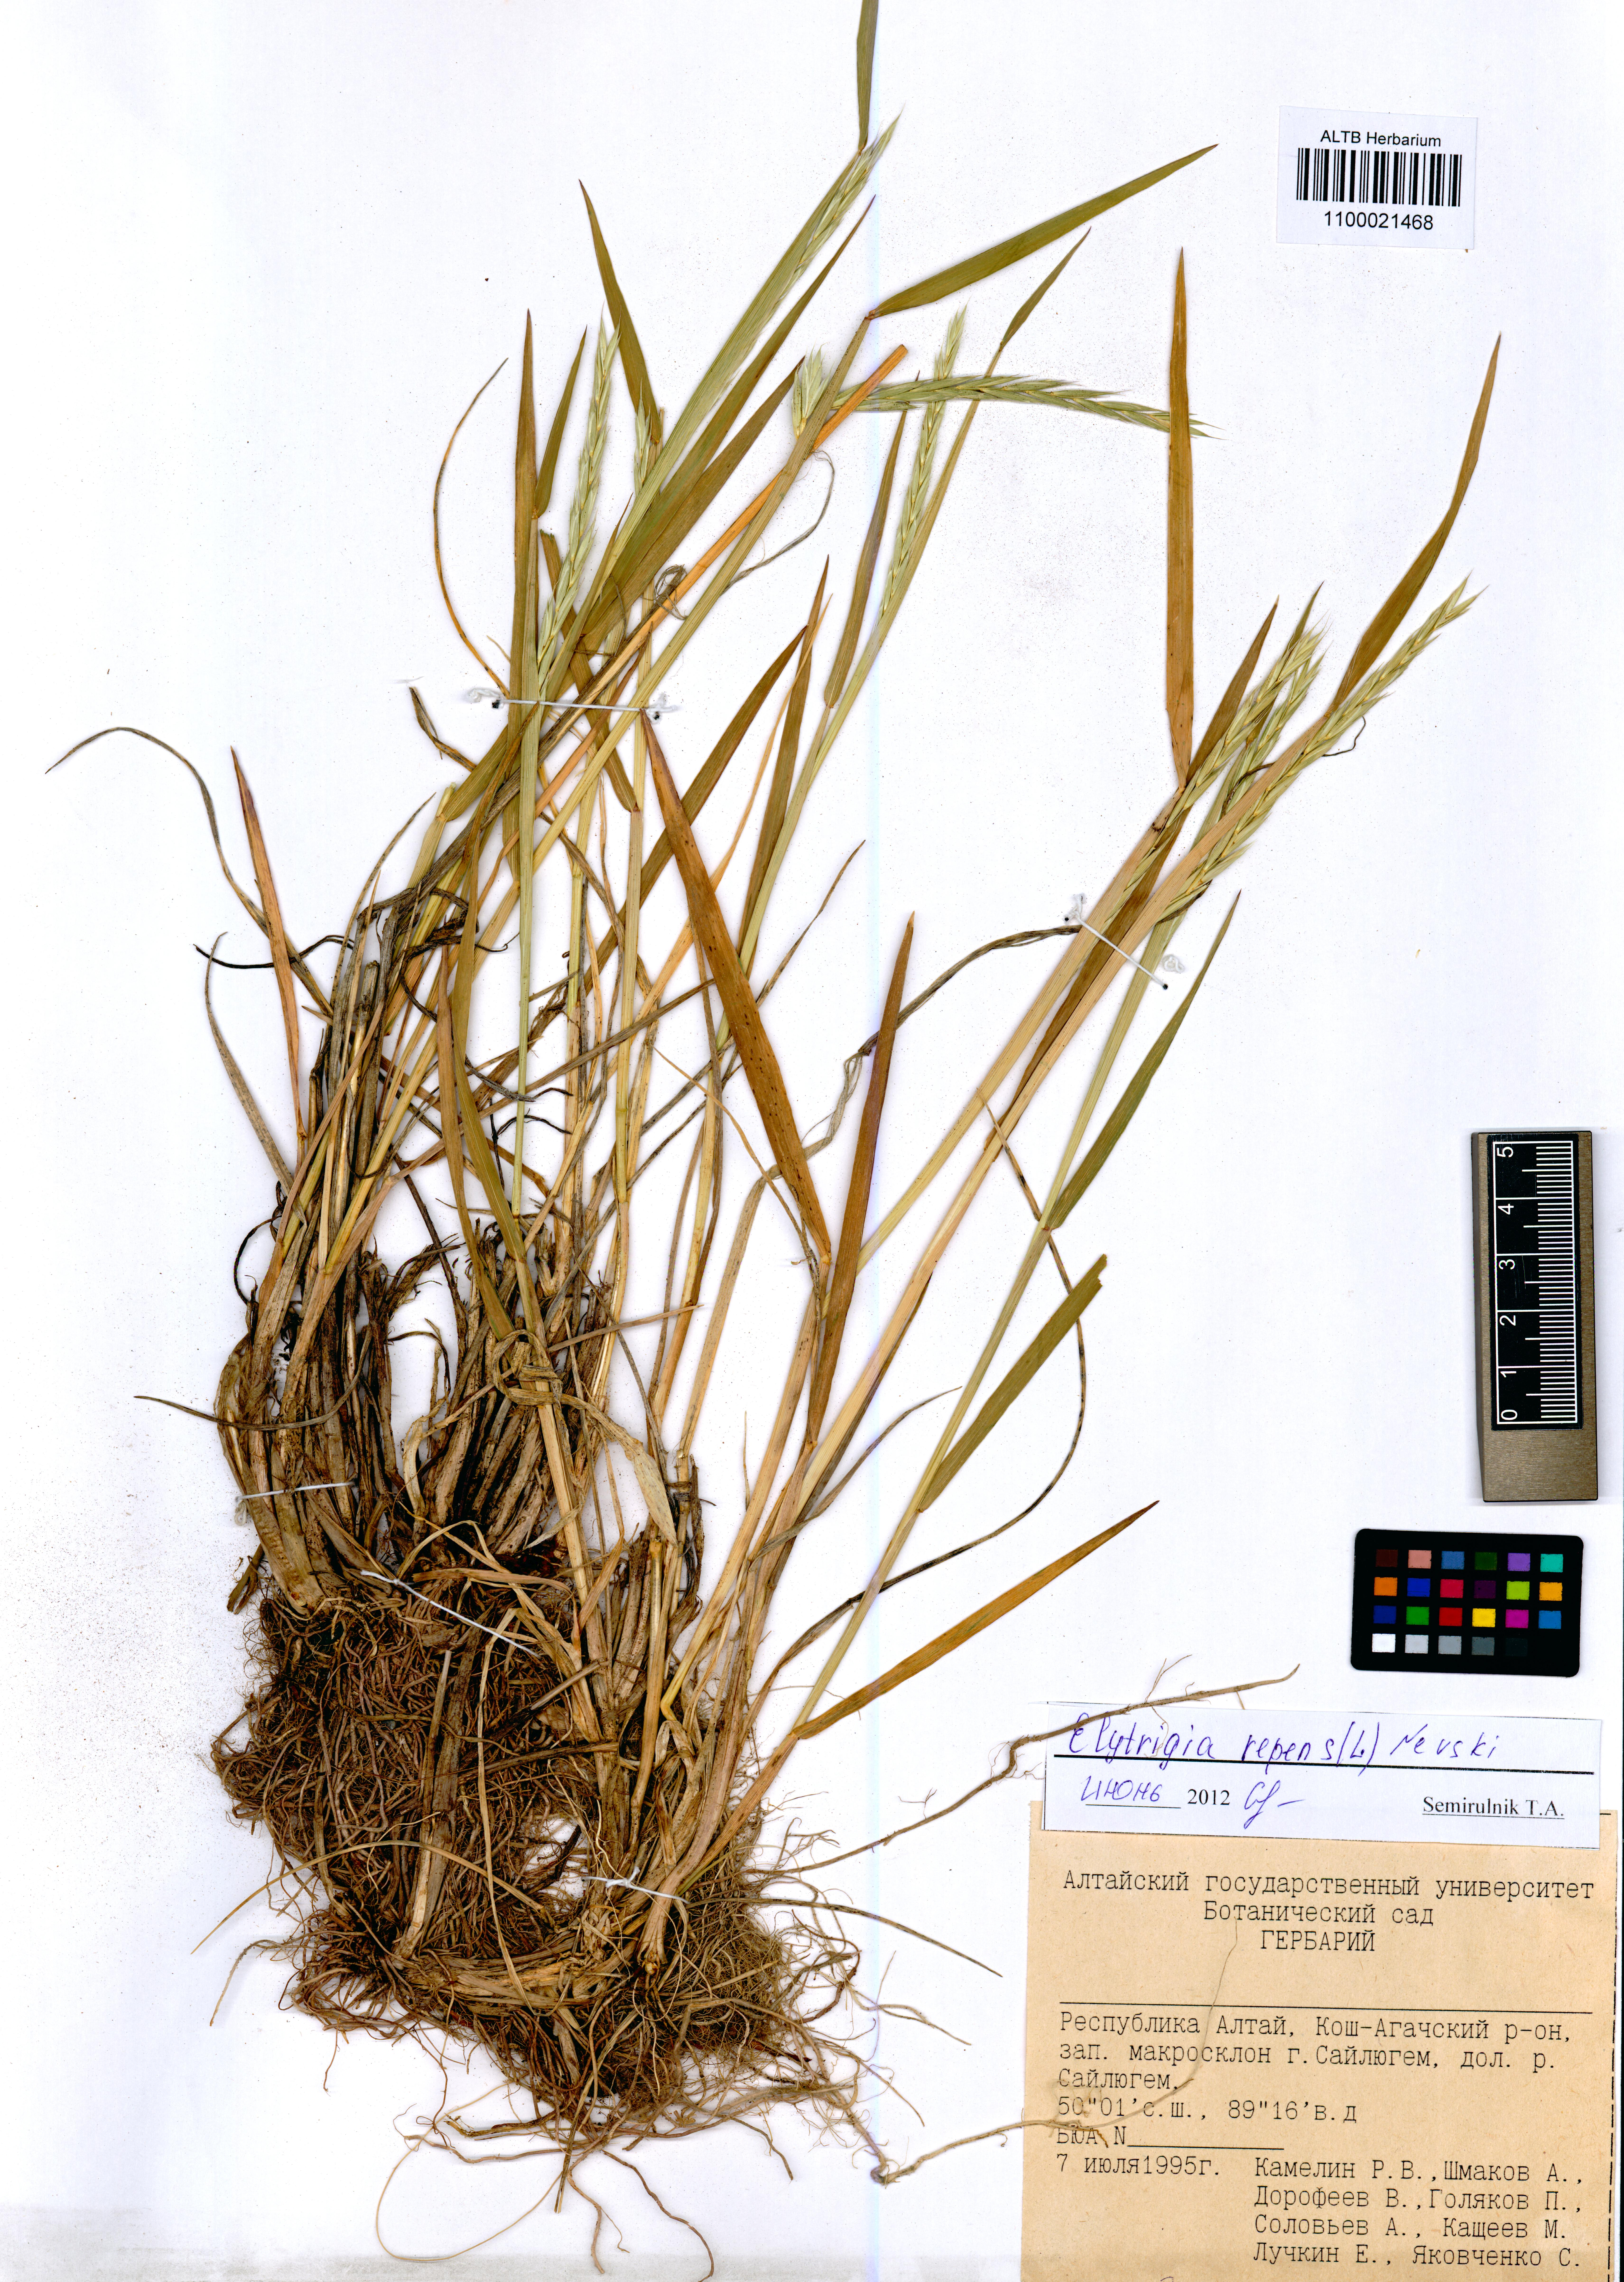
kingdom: Plantae
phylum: Tracheophyta
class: Liliopsida
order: Poales
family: Poaceae
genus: Elymus
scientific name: Elymus repens
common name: Quackgrass
